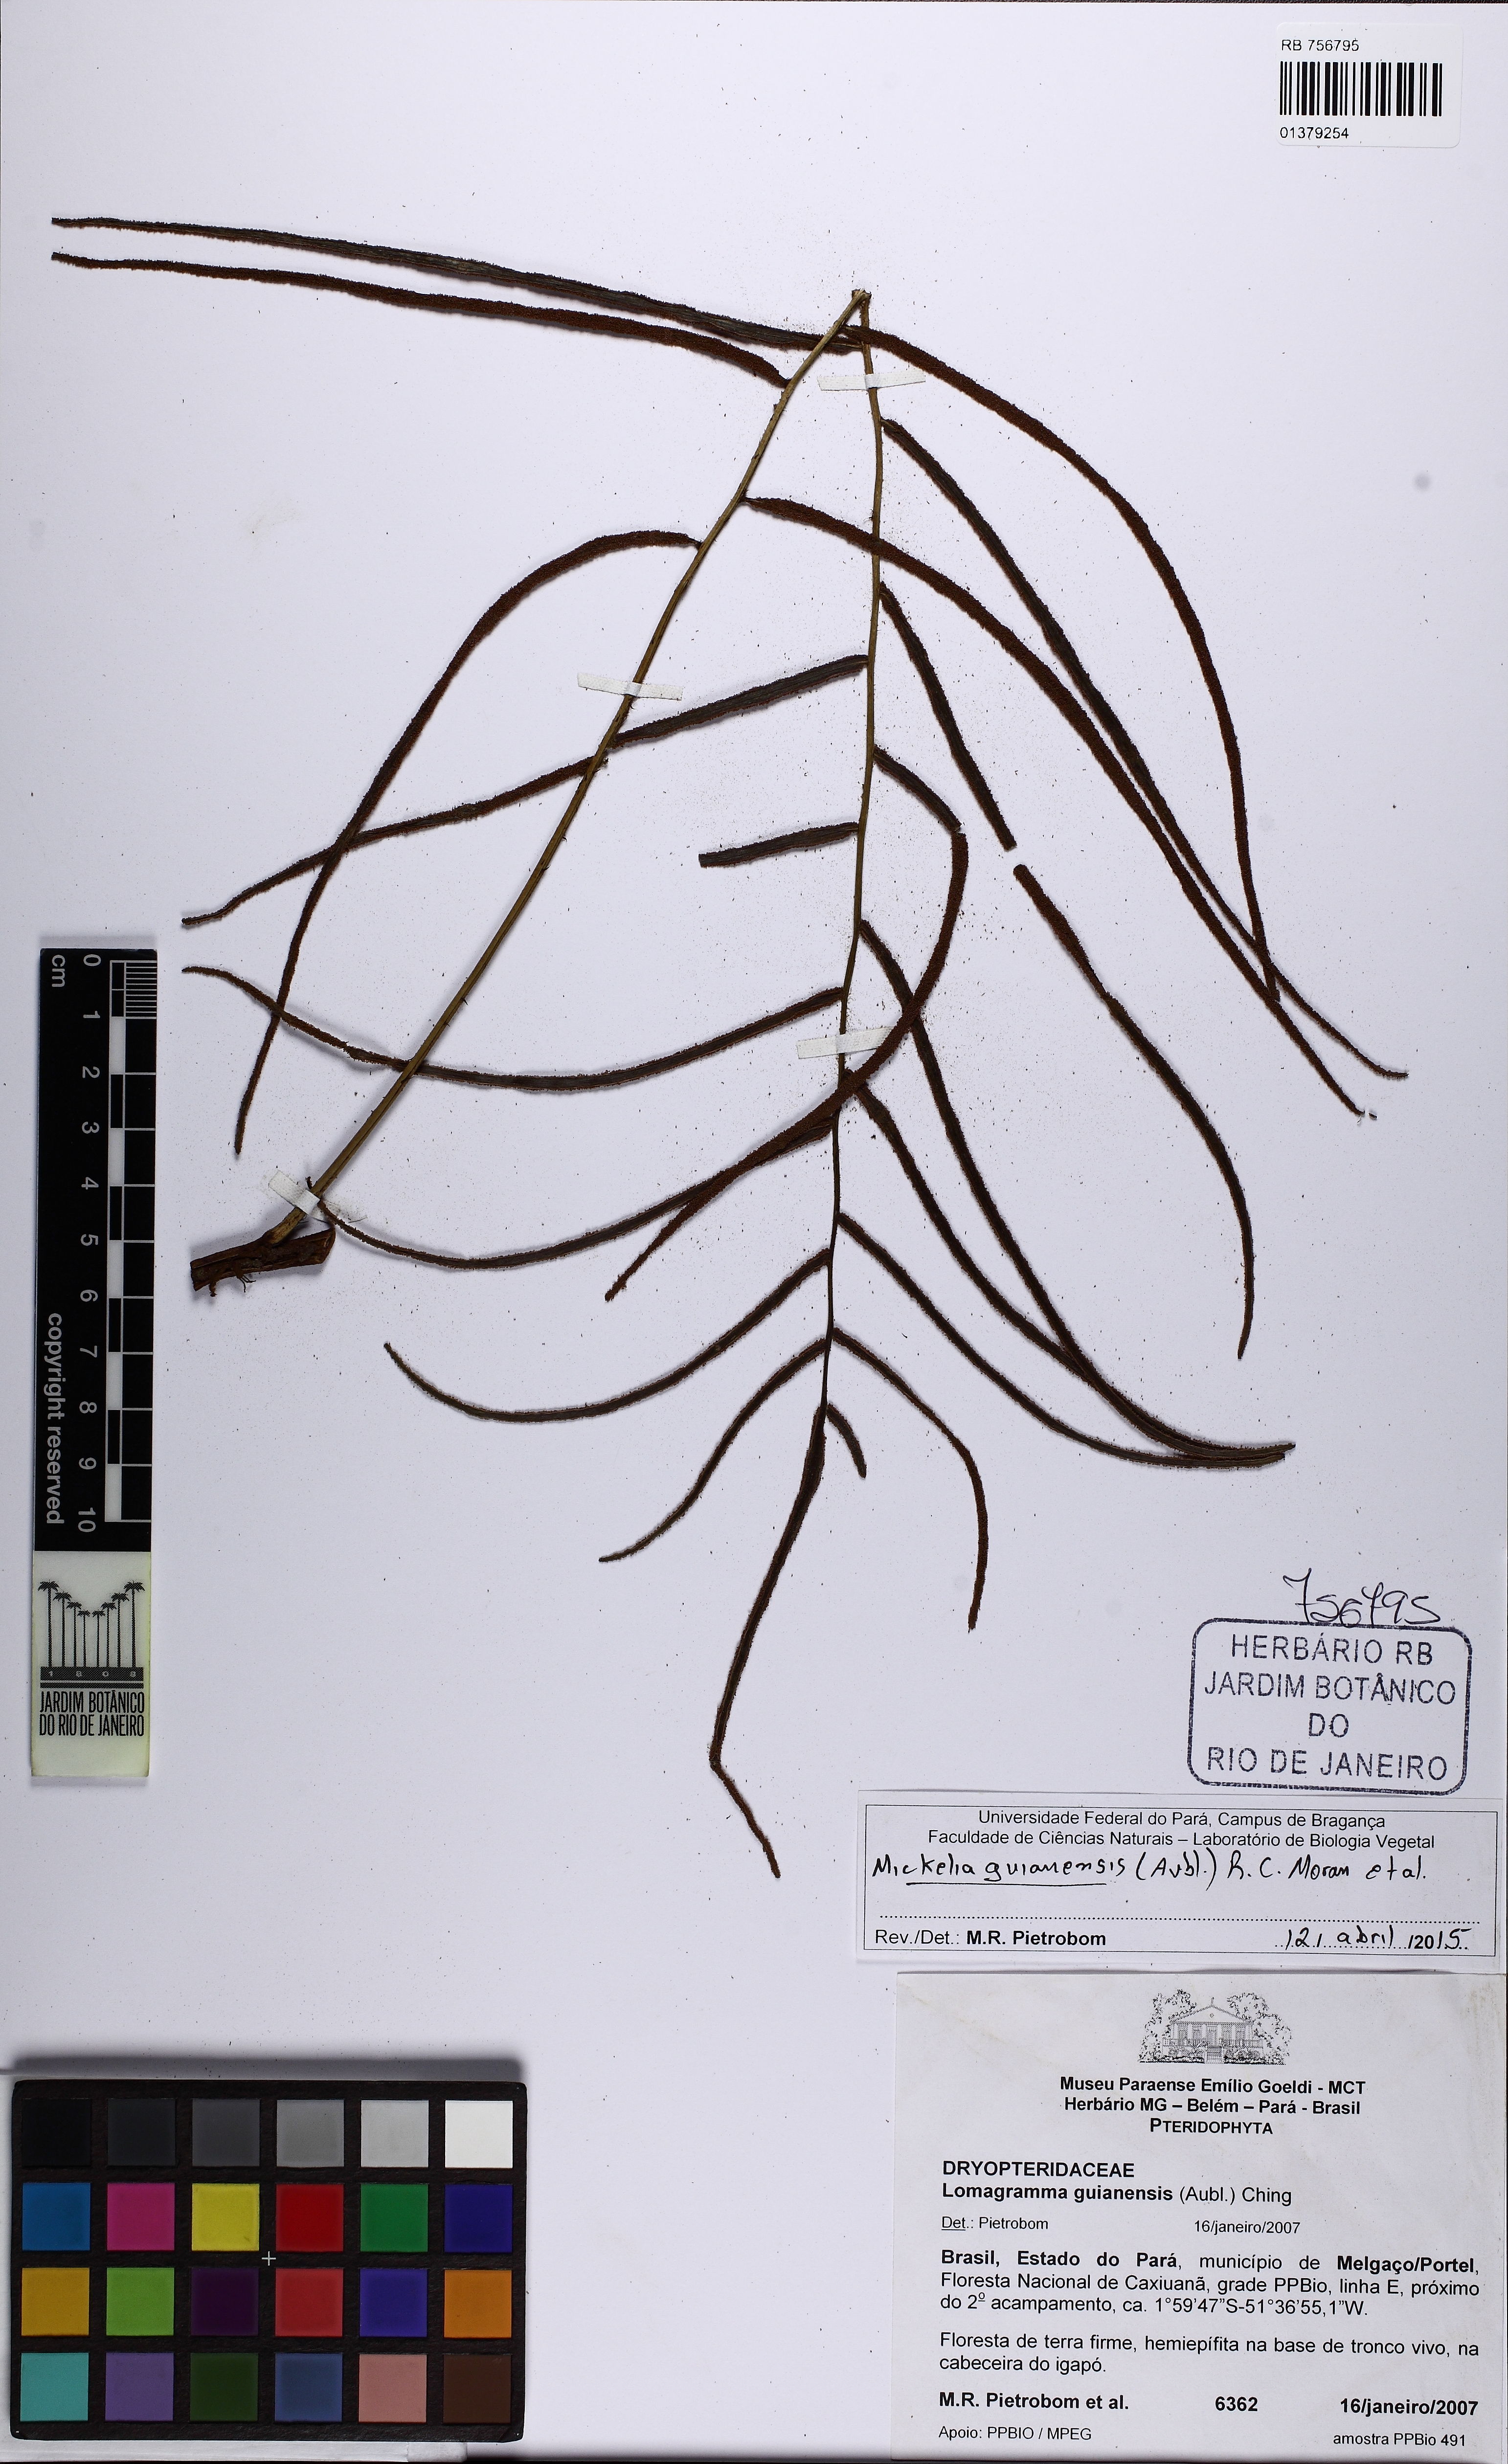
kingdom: Plantae
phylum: Tracheophyta
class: Polypodiopsida
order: Polypodiales
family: Dryopteridaceae
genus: Mickelia
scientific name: Mickelia guianensis
